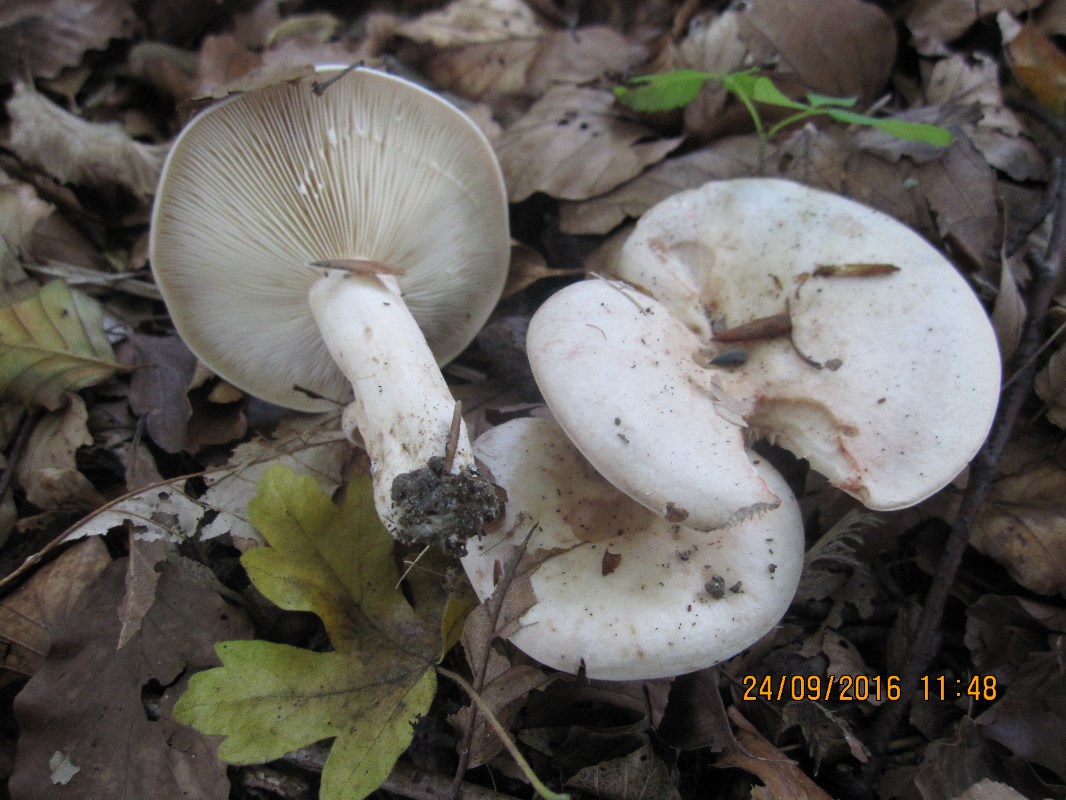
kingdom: Fungi
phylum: Basidiomycota
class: Agaricomycetes
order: Russulales
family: Russulaceae
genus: Lactarius
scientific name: Lactarius pallidus
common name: bleg mælkehat
